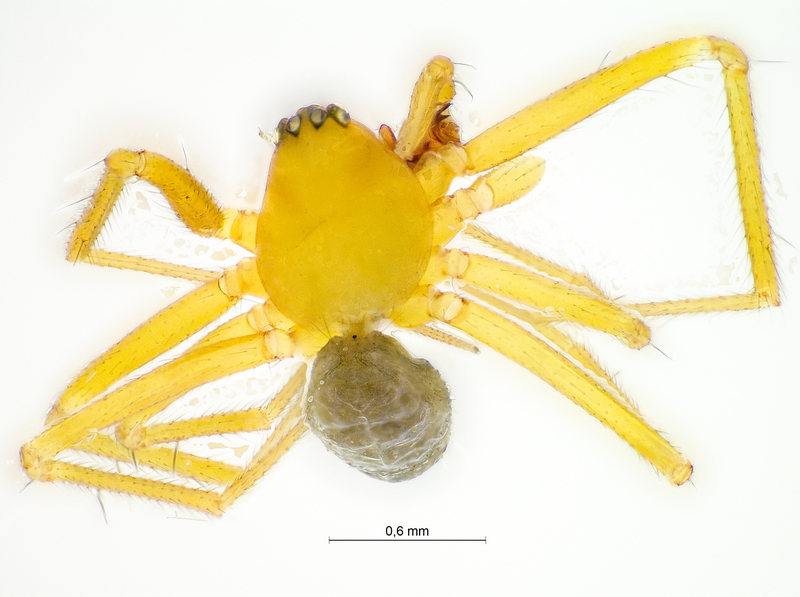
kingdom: Animalia
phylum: Arthropoda
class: Arachnida
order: Araneae
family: Linyphiidae
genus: Palliduphantes
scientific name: Palliduphantes pallidus
